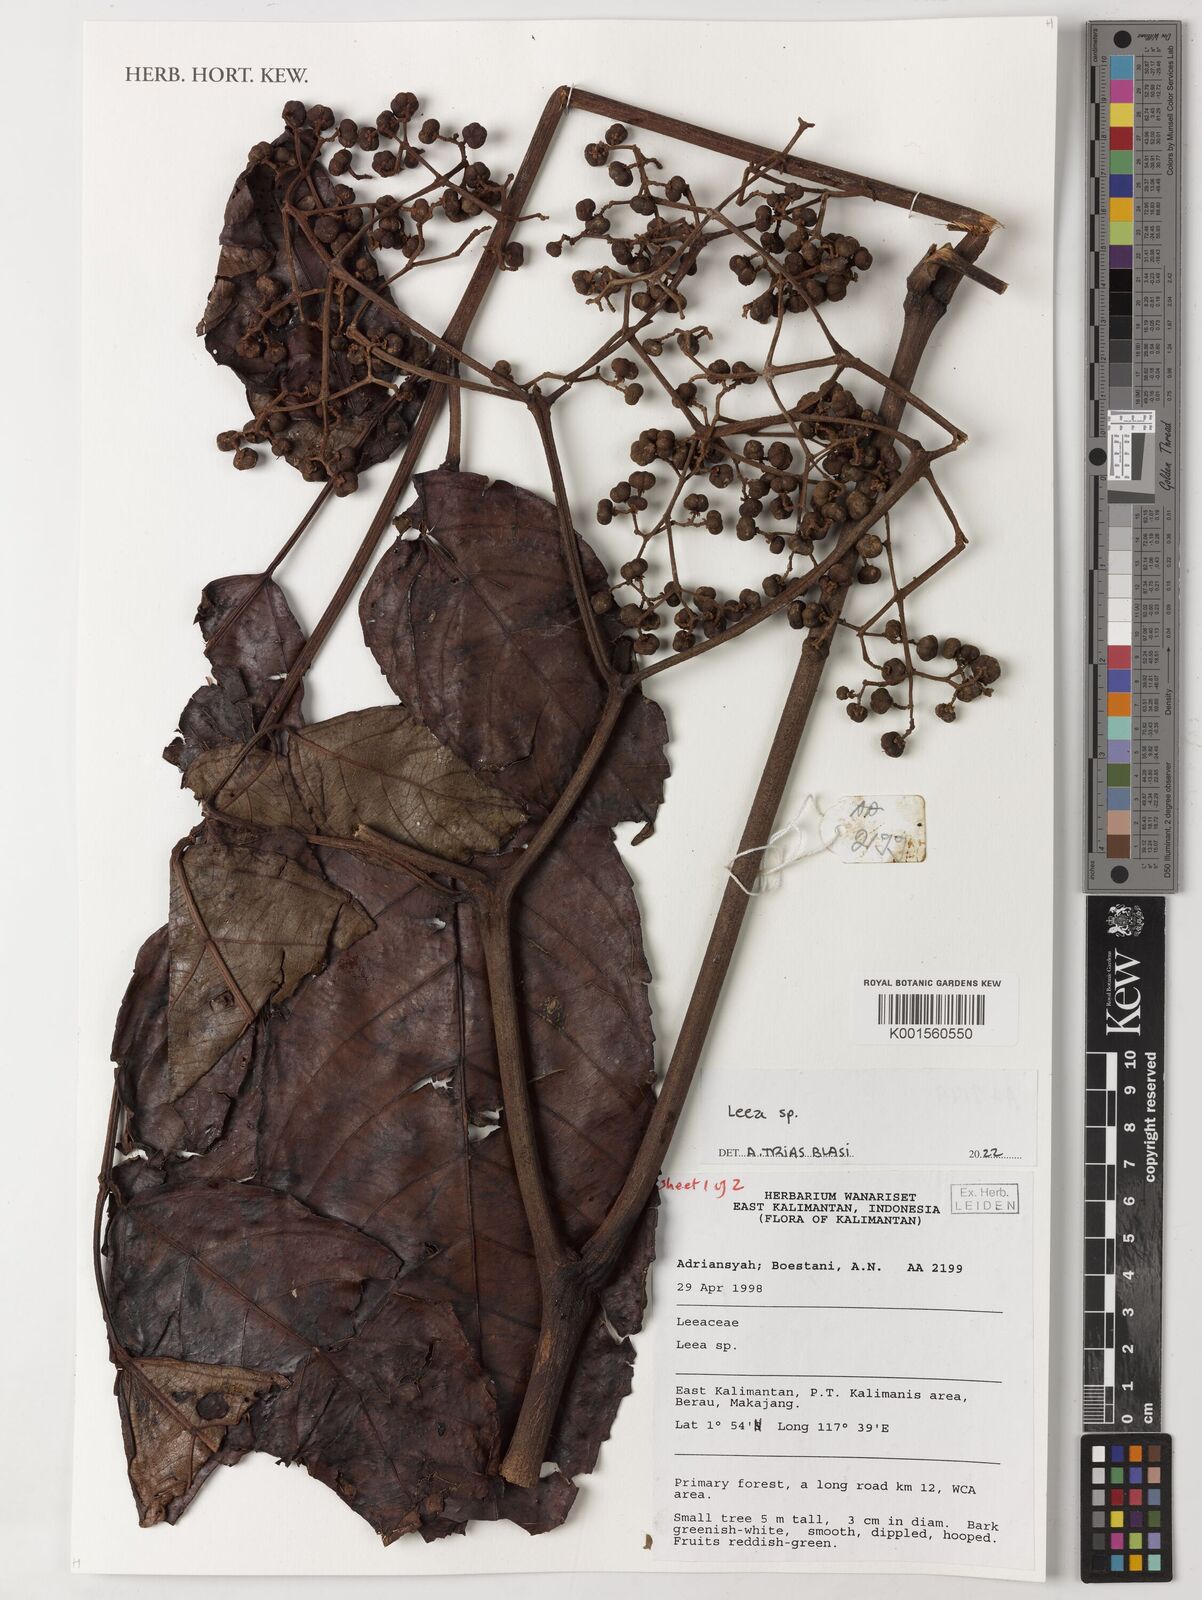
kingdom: Plantae
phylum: Tracheophyta
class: Magnoliopsida
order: Vitales
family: Vitaceae
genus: Leea
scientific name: Leea
